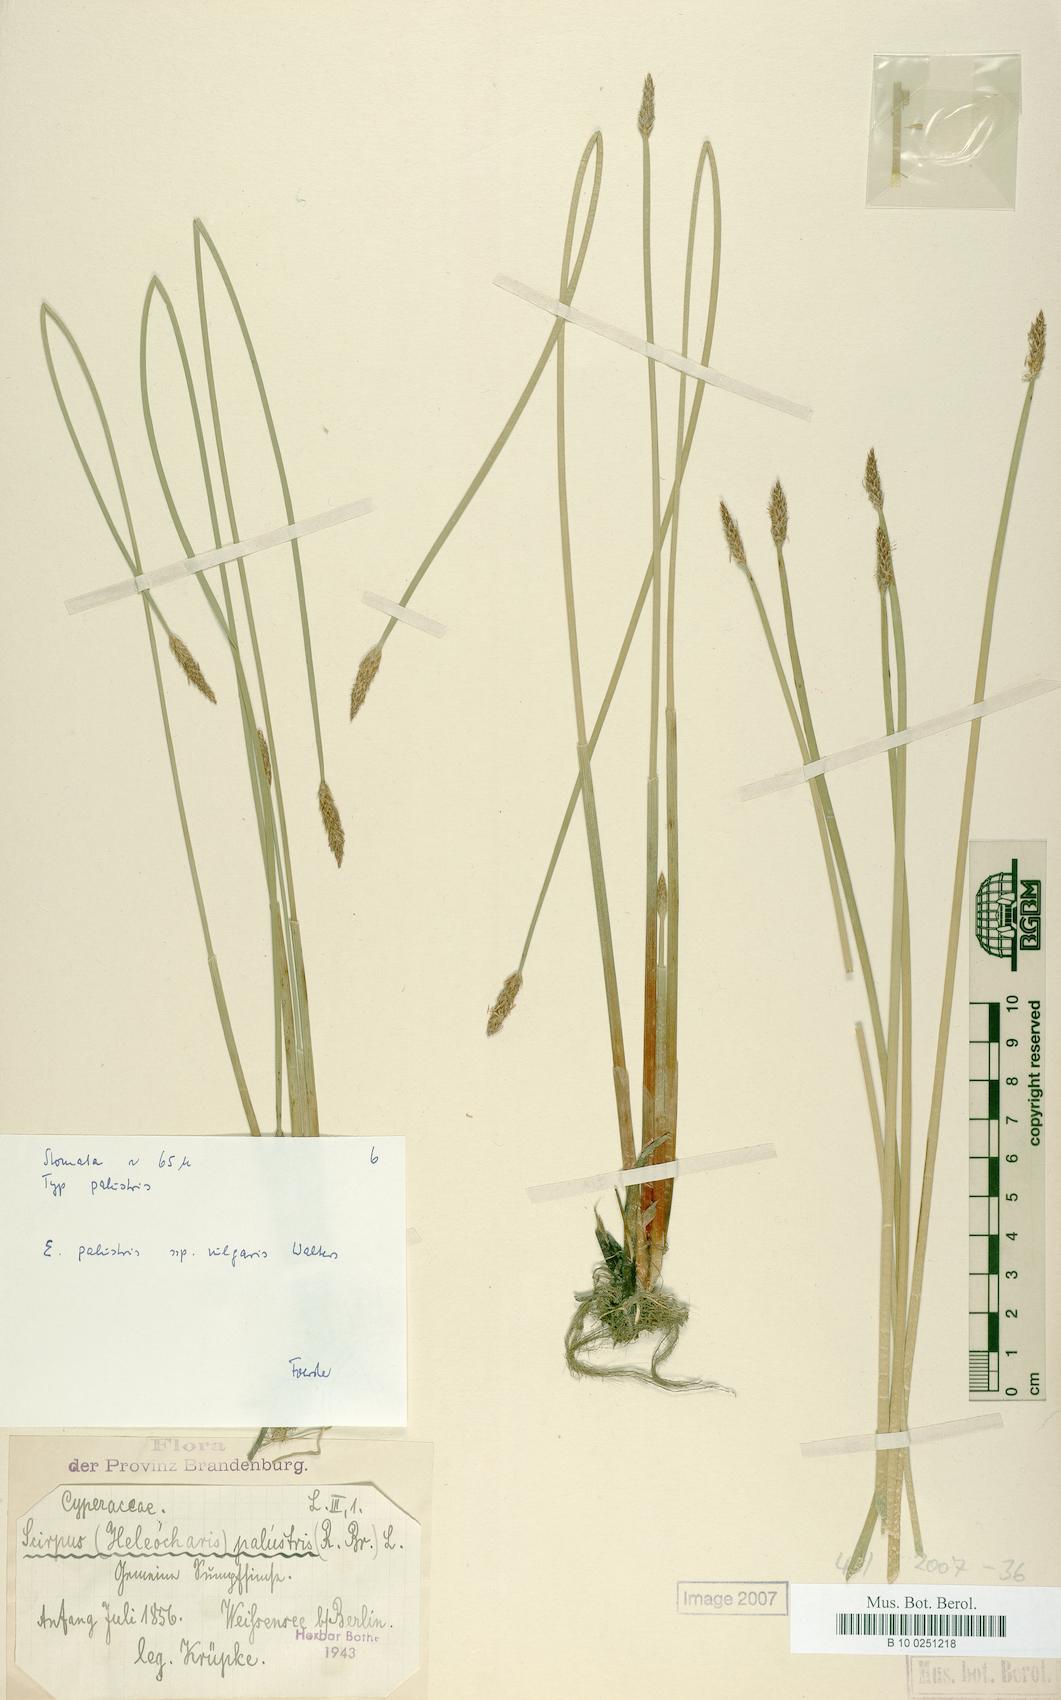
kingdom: Plantae
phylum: Tracheophyta
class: Liliopsida
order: Poales
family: Cyperaceae
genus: Eleocharis
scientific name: Eleocharis palustris
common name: Common spike-rush
